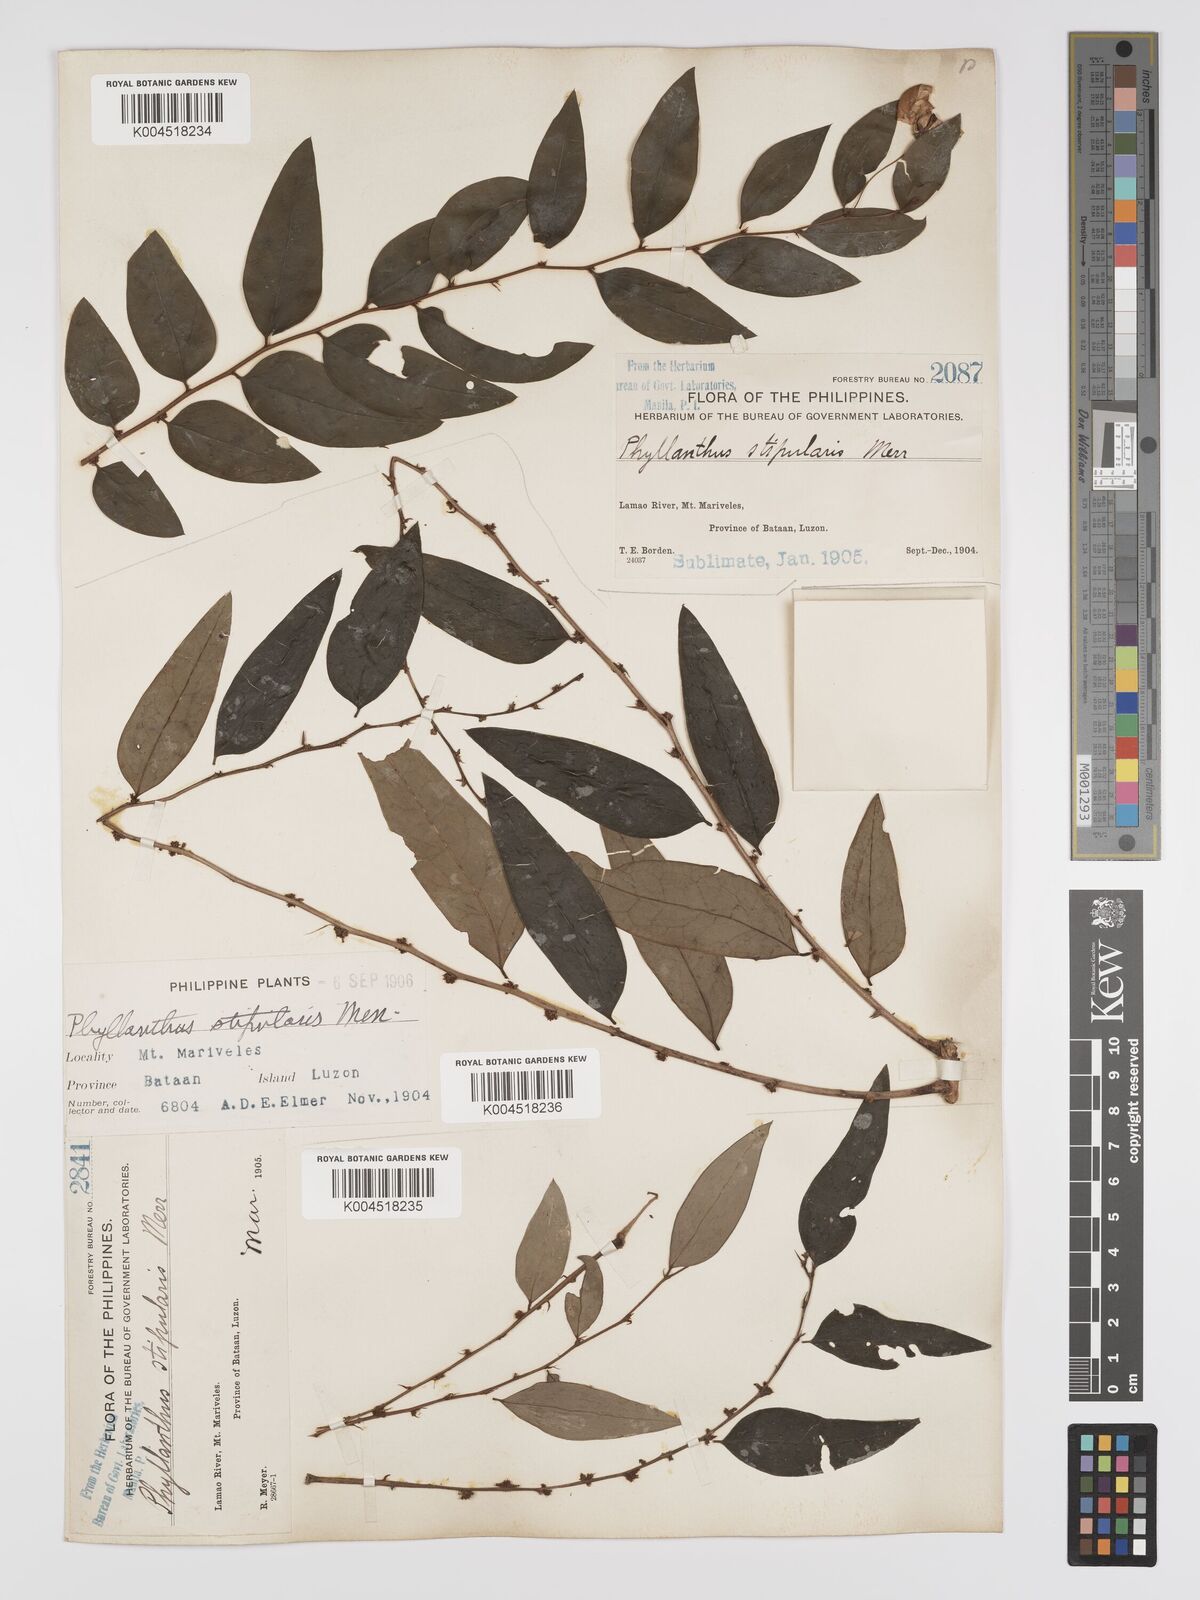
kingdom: Plantae
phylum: Tracheophyta
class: Magnoliopsida
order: Malpighiales
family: Phyllanthaceae
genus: Phyllanthus
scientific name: Phyllanthus stipularis
